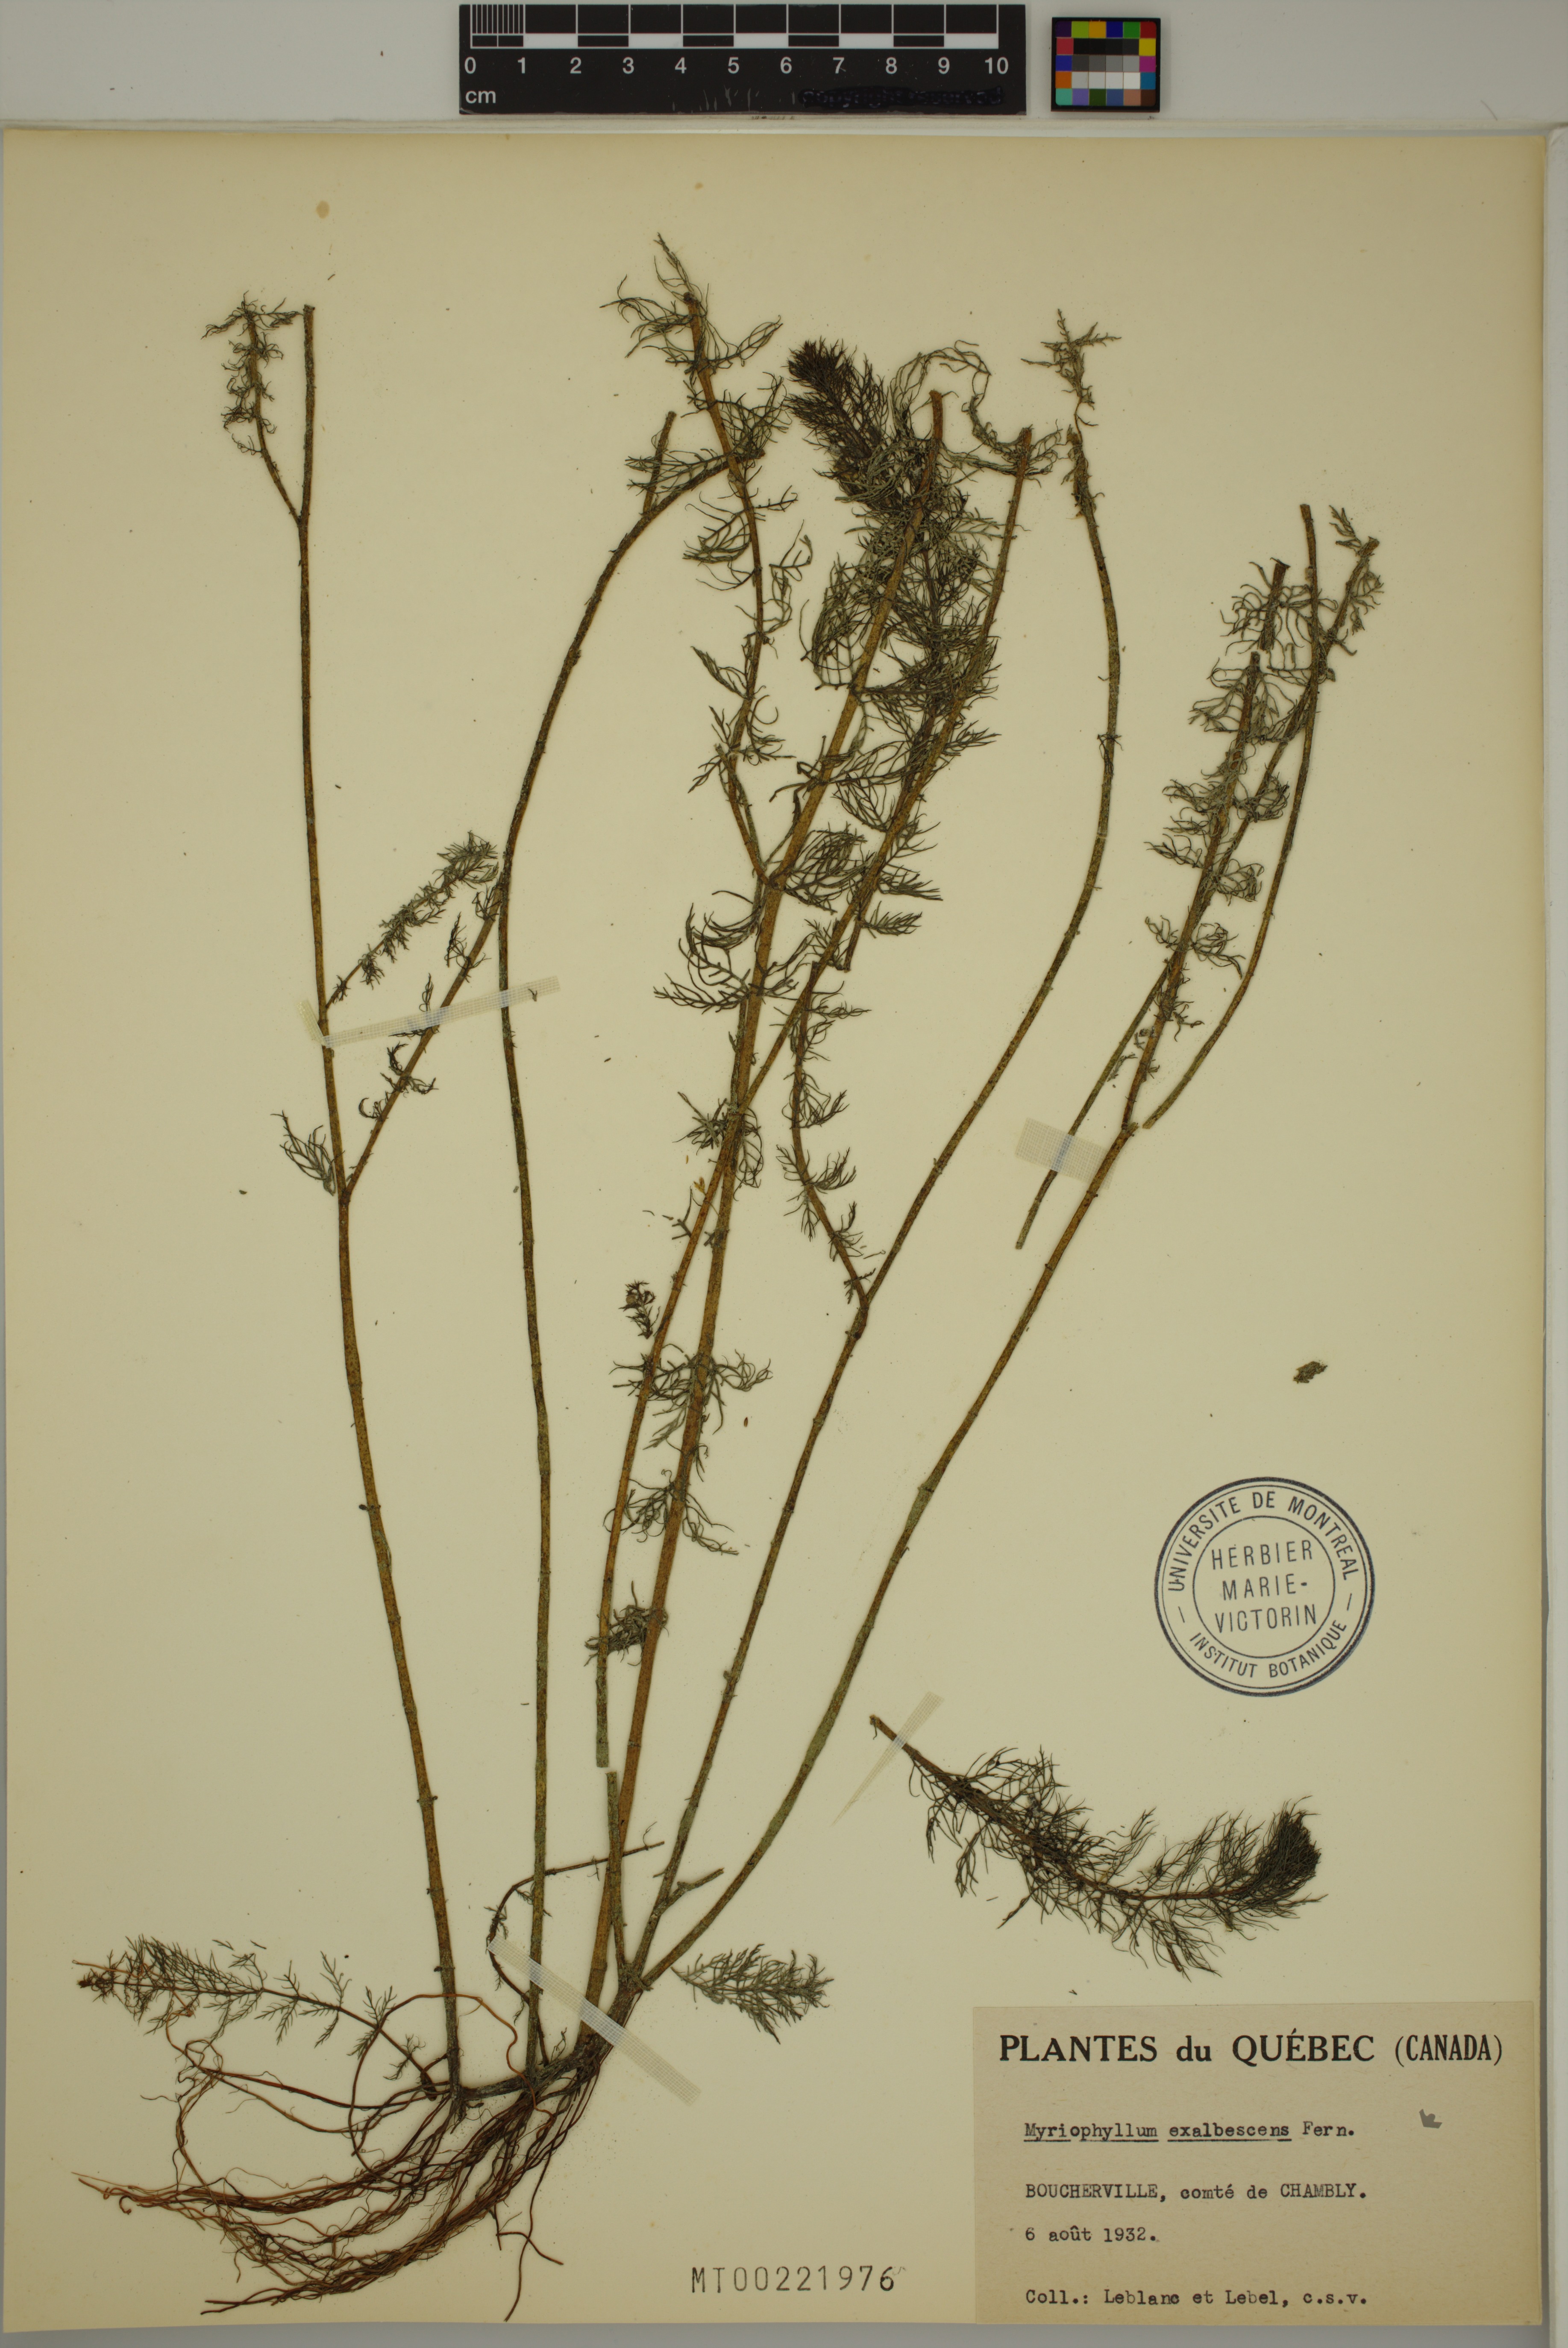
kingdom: Plantae
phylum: Tracheophyta
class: Magnoliopsida
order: Saxifragales
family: Haloragaceae
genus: Myriophyllum
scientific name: Myriophyllum sibiricum
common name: Siberian water-milfoil
